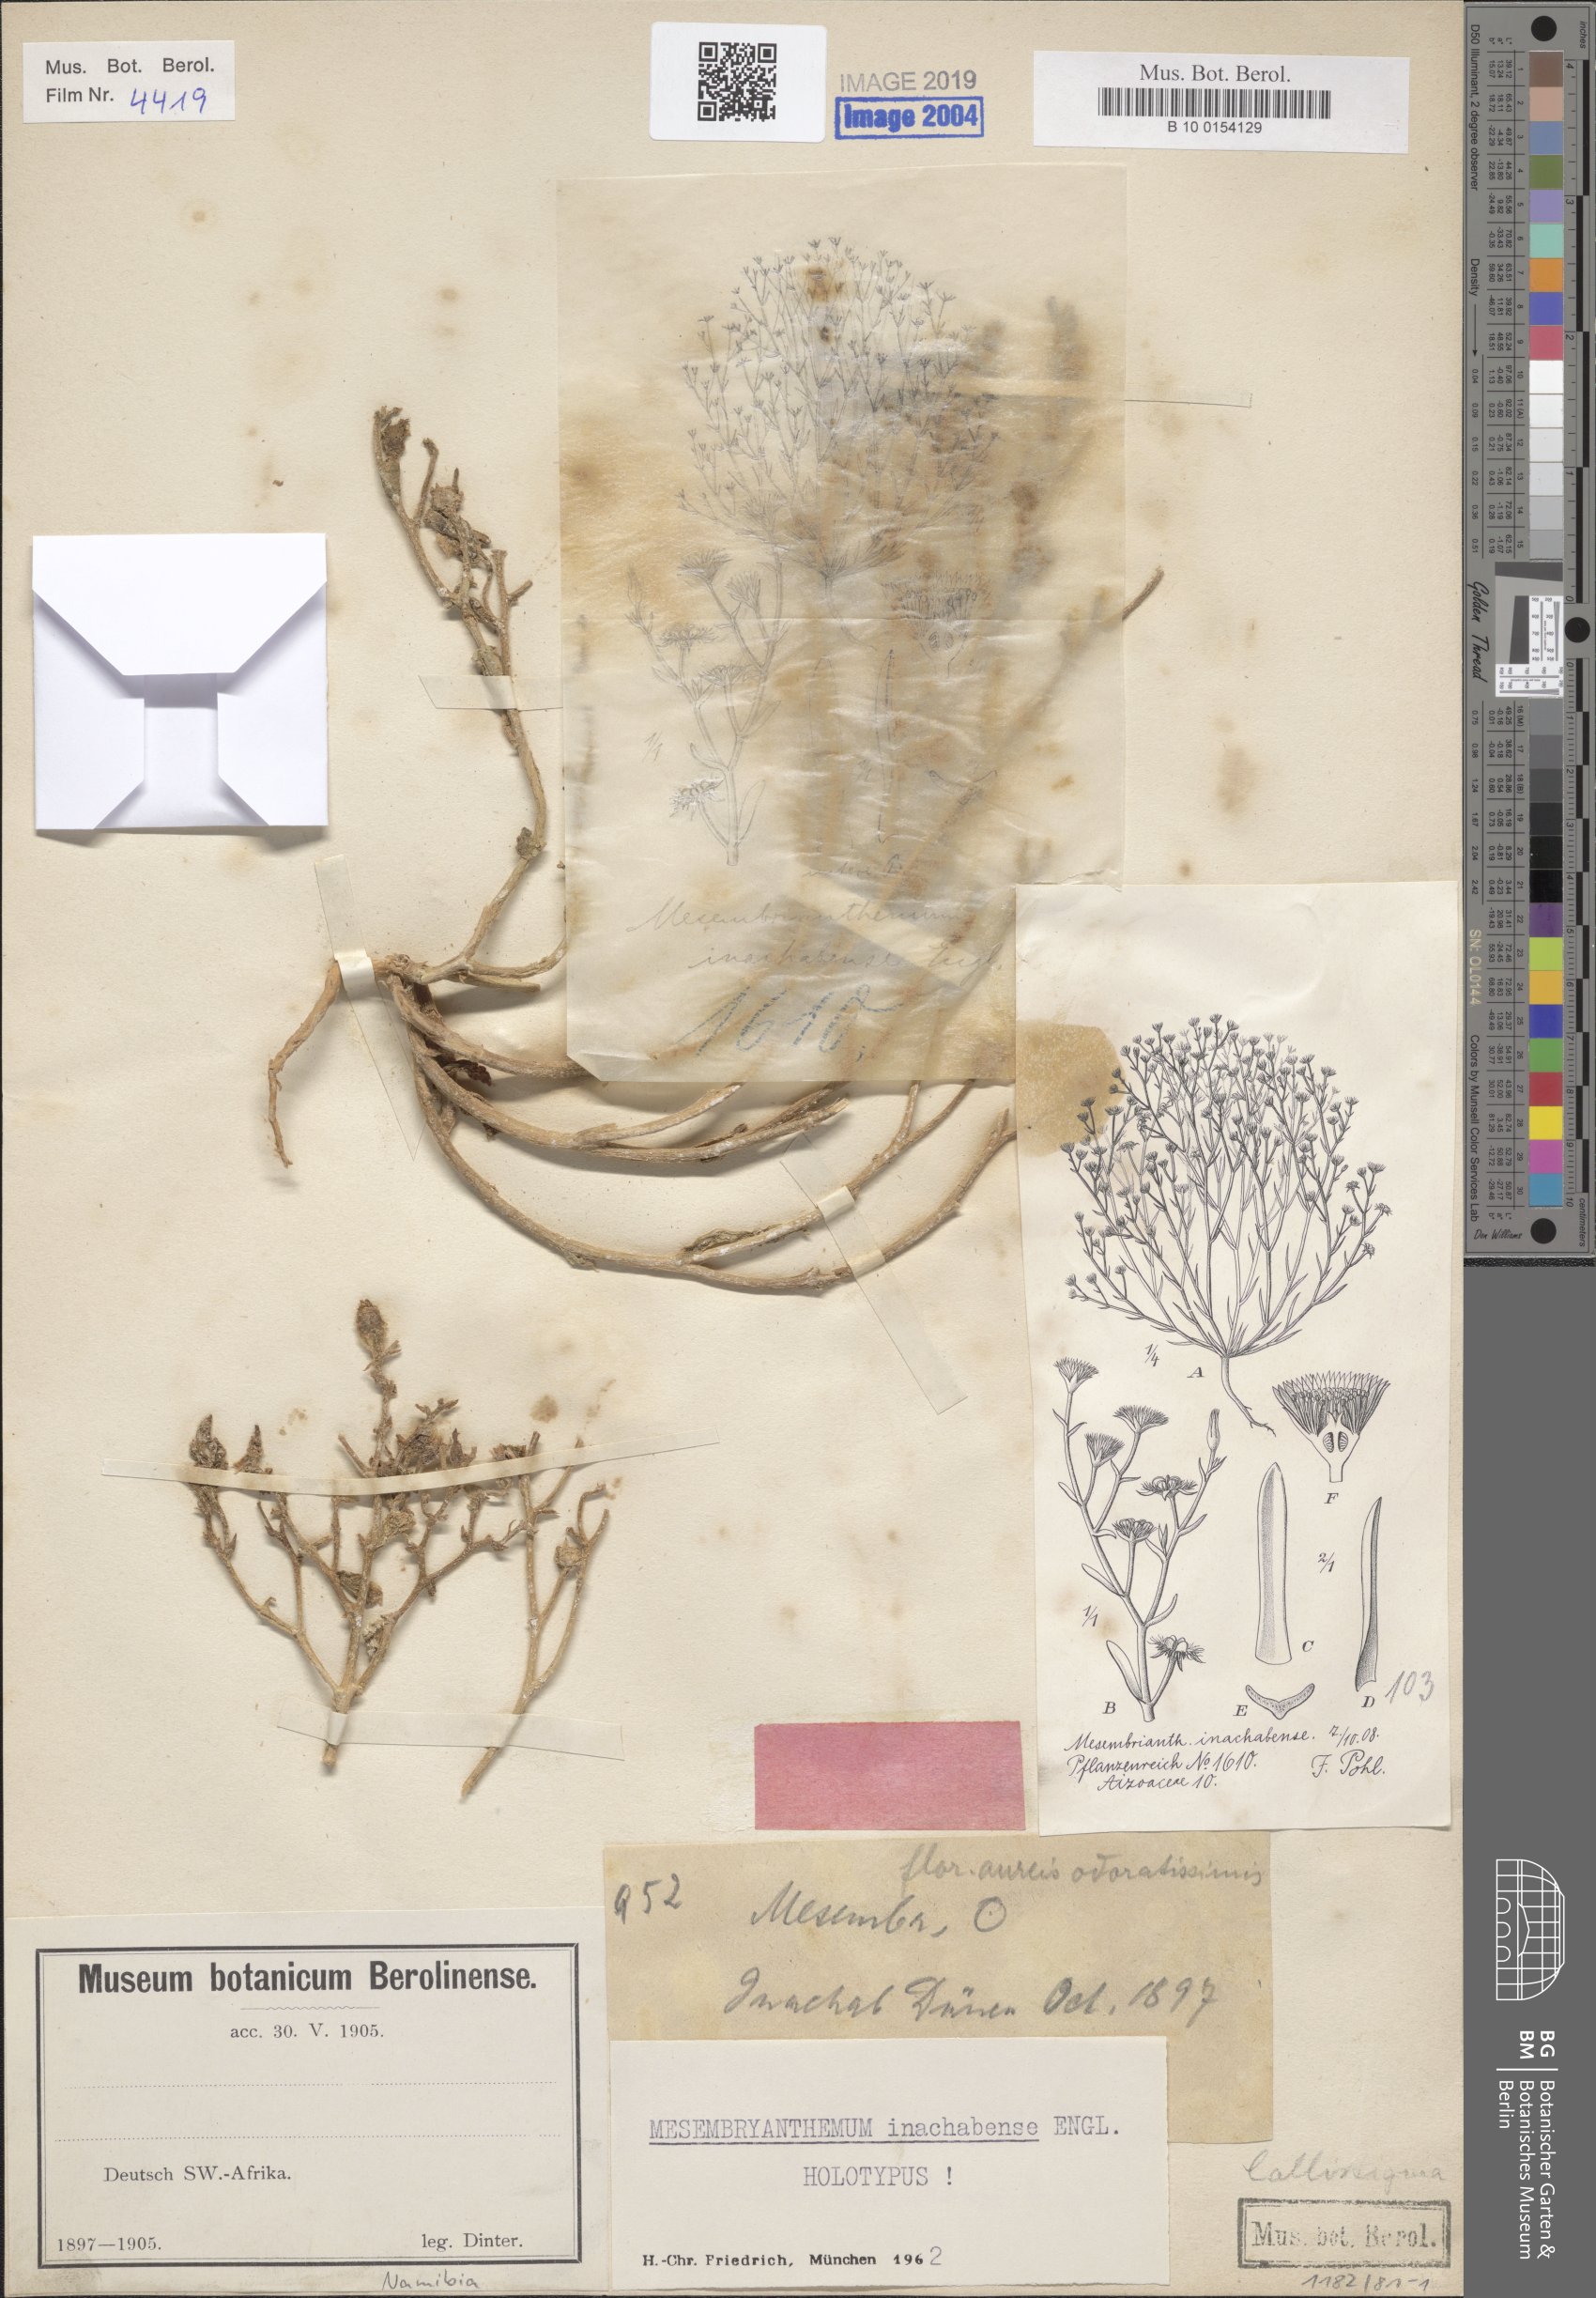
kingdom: Plantae
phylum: Tracheophyta
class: Magnoliopsida
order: Caryophyllales
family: Aizoaceae
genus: Mesembryanthemum
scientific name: Mesembryanthemum inachabense
